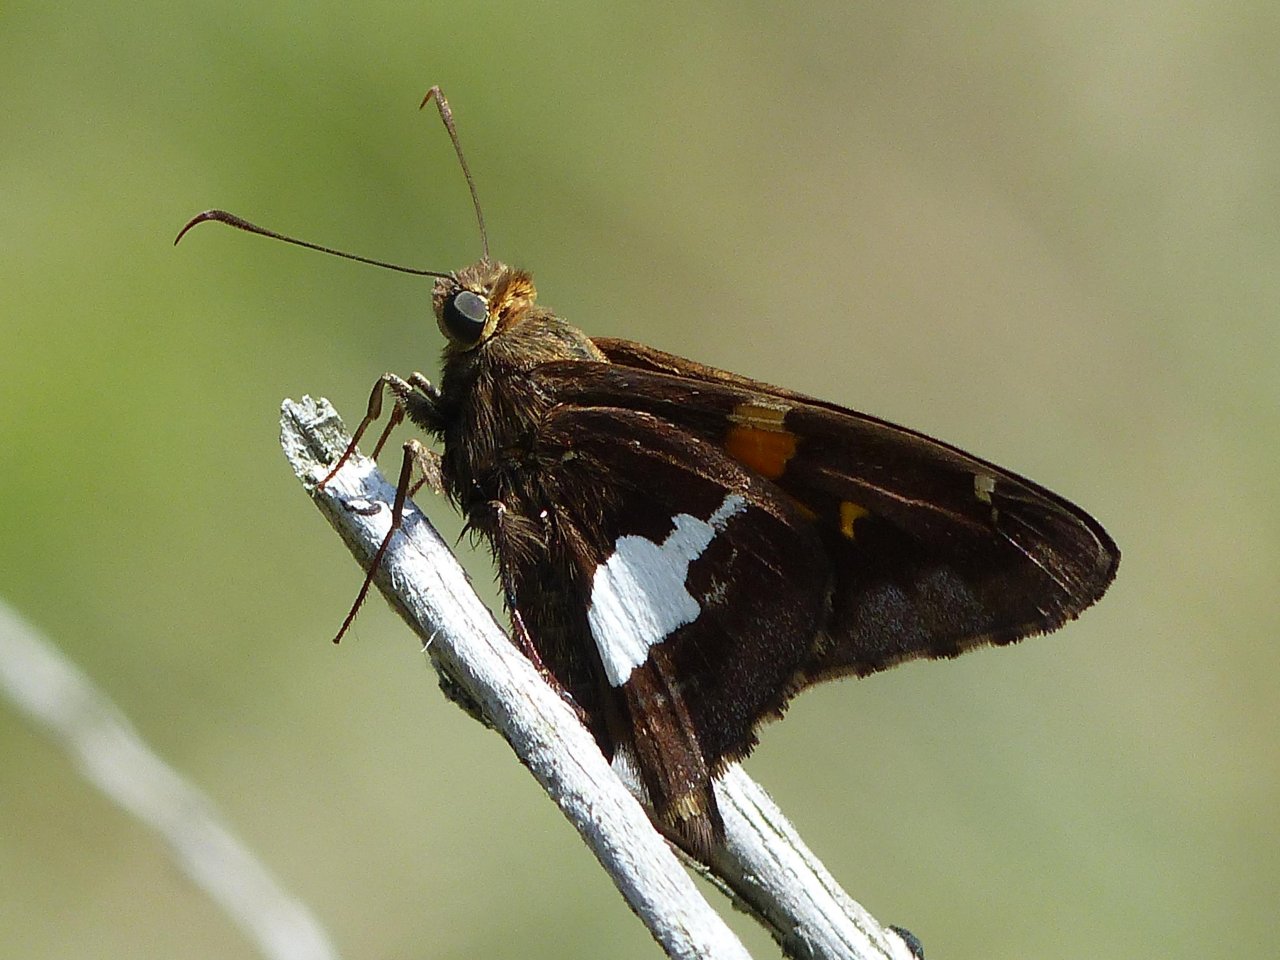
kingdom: Animalia
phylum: Arthropoda
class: Insecta
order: Lepidoptera
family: Hesperiidae
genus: Epargyreus
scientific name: Epargyreus clarus
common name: Silver-spotted Skipper
